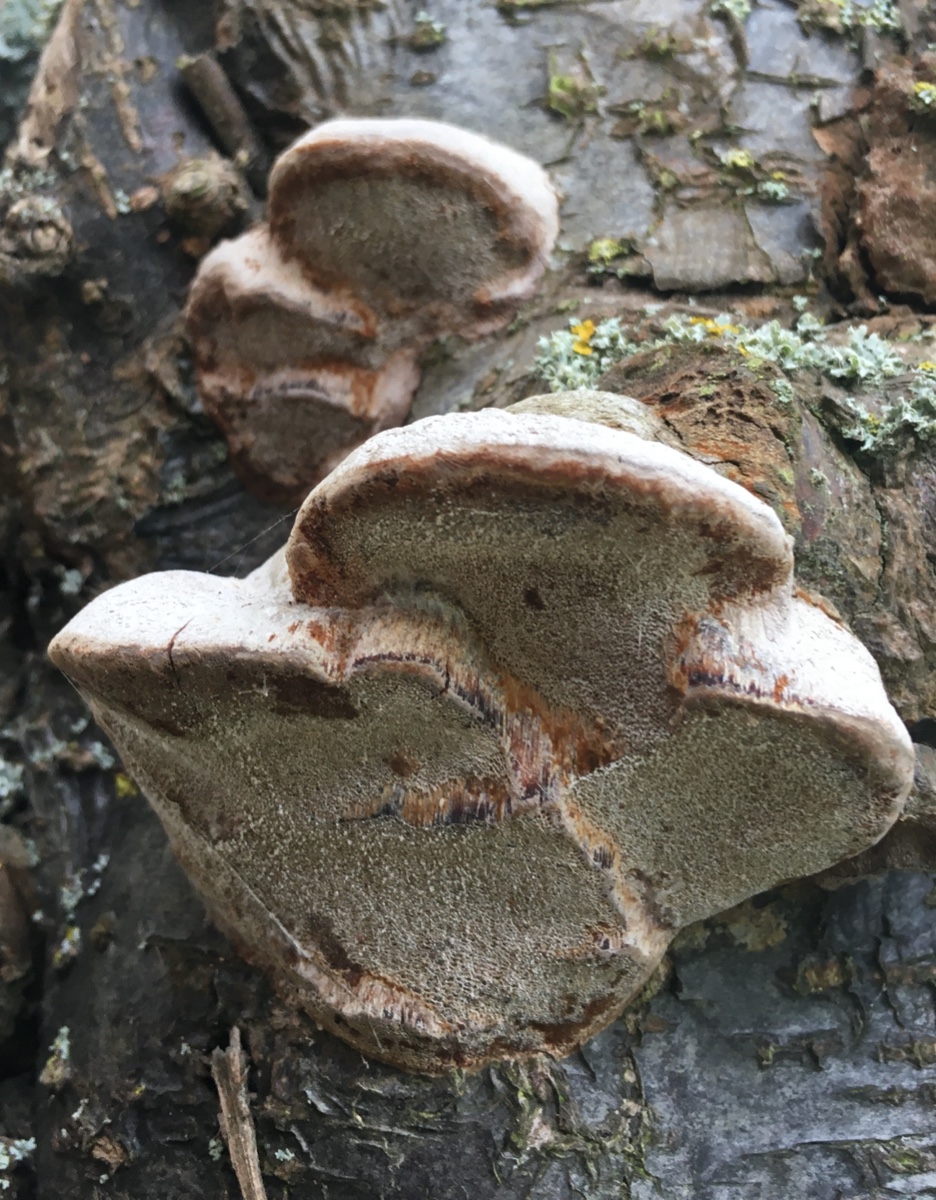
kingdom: Fungi
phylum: Basidiomycota
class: Agaricomycetes
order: Hymenochaetales
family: Hymenochaetaceae
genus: Phellinus
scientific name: Phellinus pomaceus
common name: blomme-ildporesvamp
